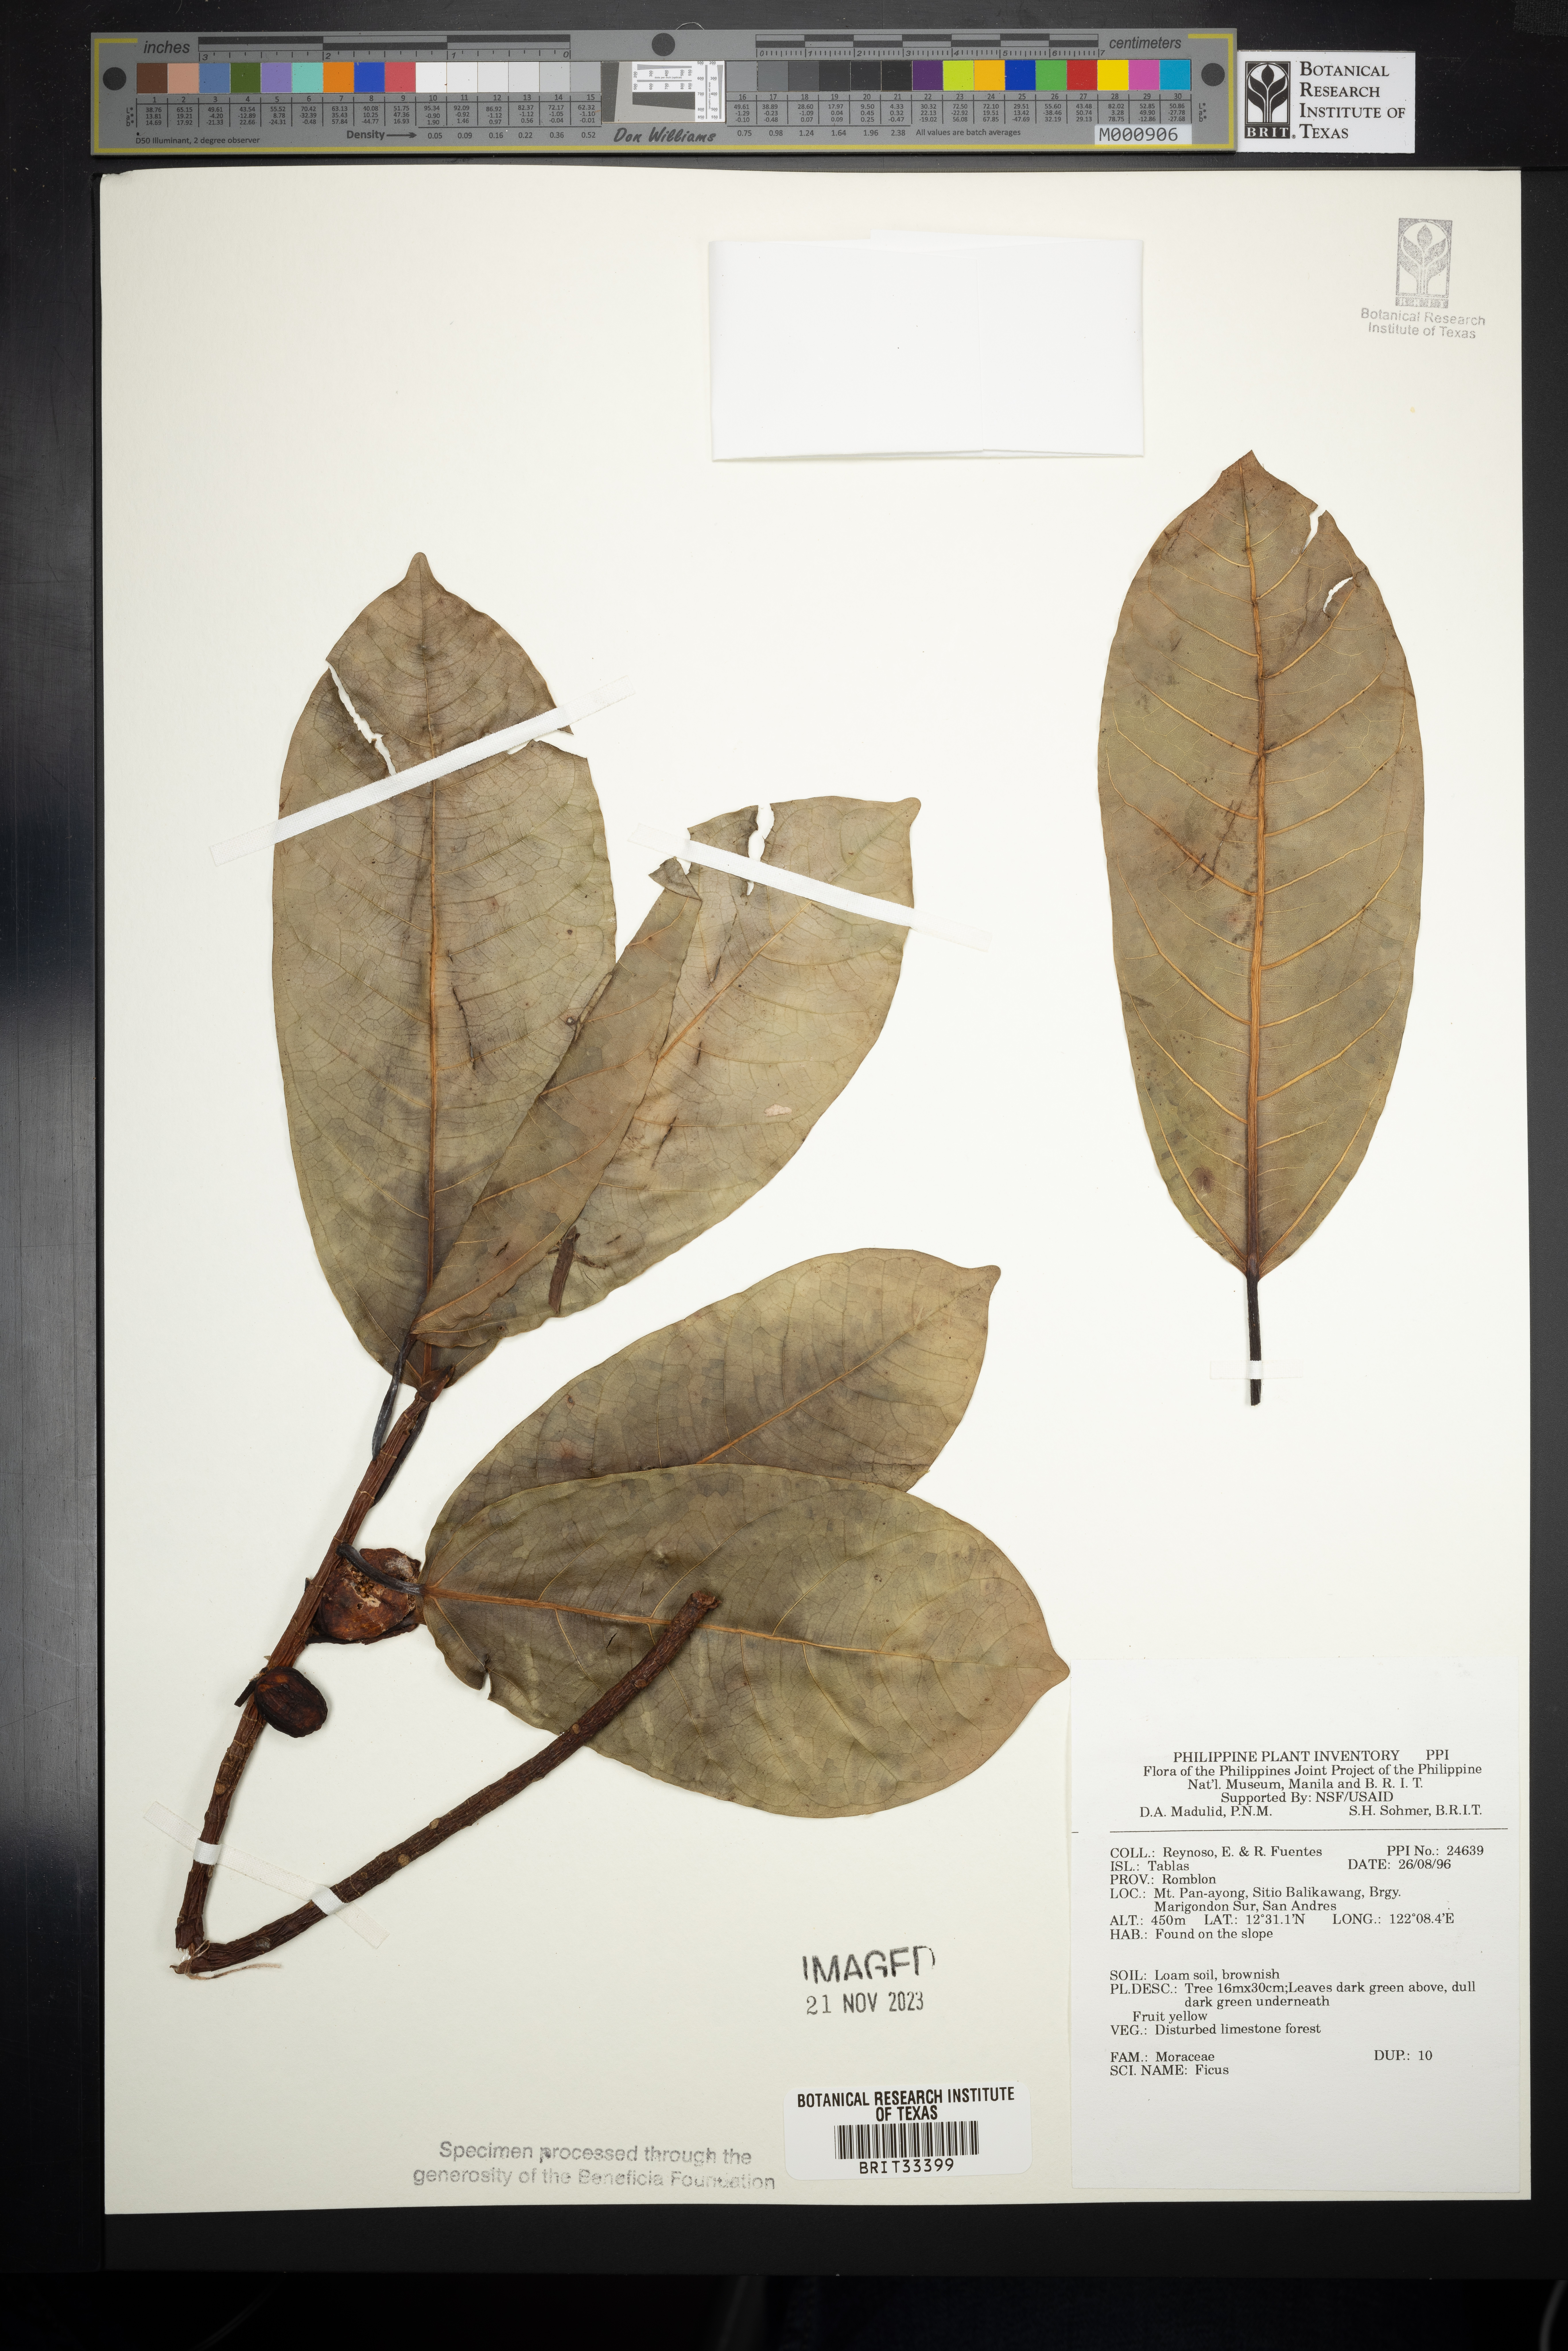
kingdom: Plantae
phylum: Tracheophyta
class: Magnoliopsida
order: Rosales
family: Moraceae
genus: Ficus
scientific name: Ficus
